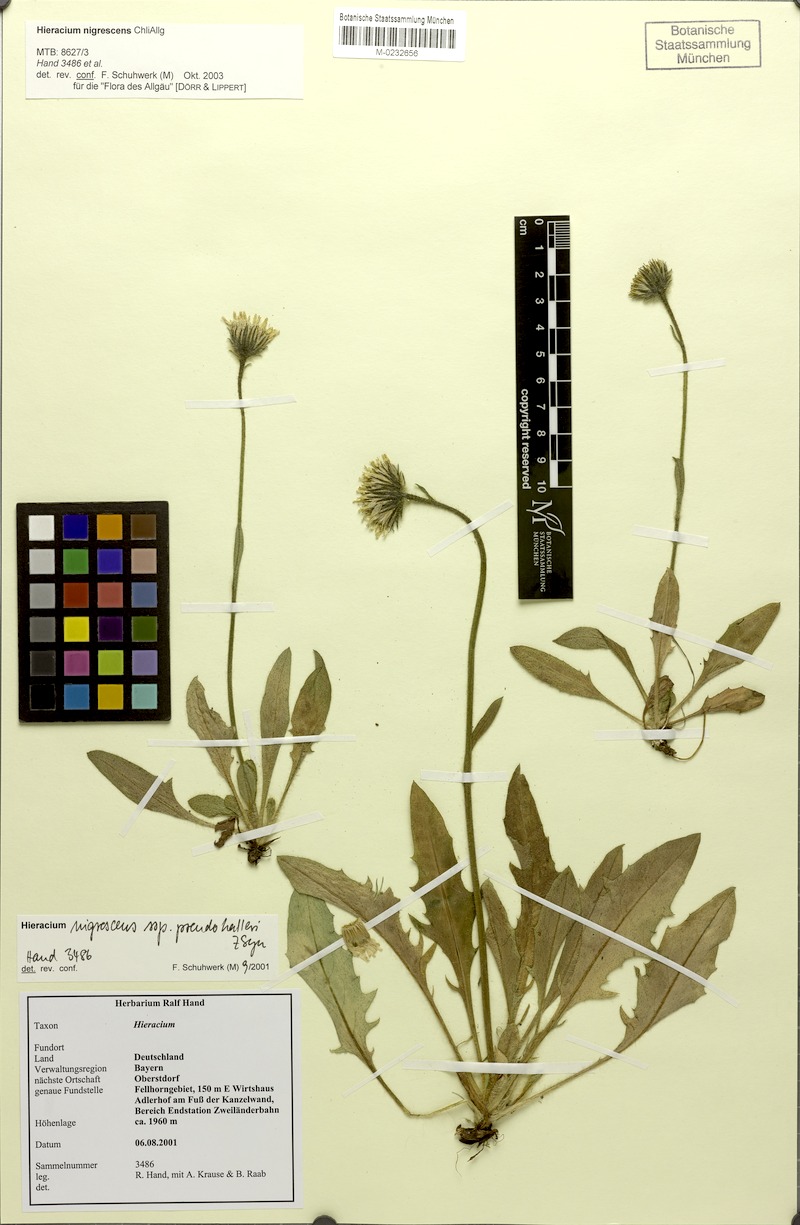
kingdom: Plantae
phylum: Tracheophyta
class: Magnoliopsida
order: Asterales
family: Asteraceae
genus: Hieracium
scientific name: Hieracium nigrescens
